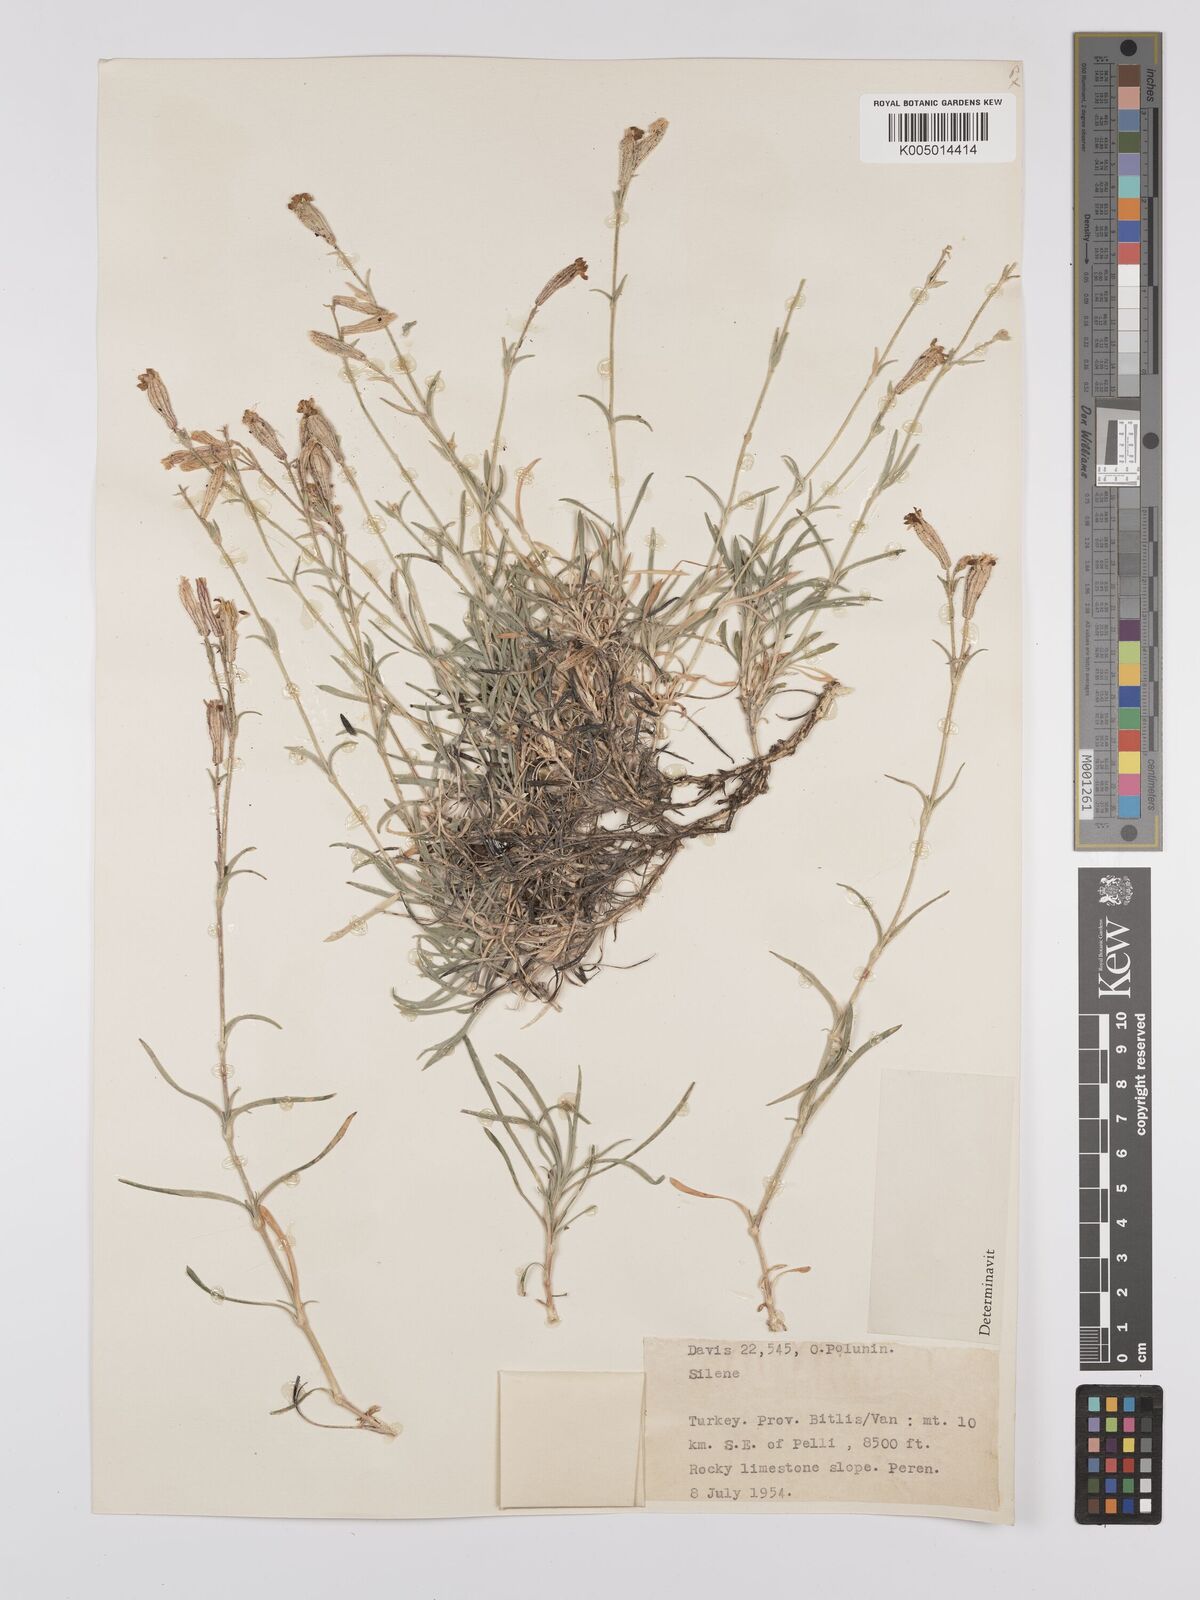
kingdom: Plantae
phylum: Tracheophyta
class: Magnoliopsida
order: Caryophyllales
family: Caryophyllaceae
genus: Silene
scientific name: Silene
